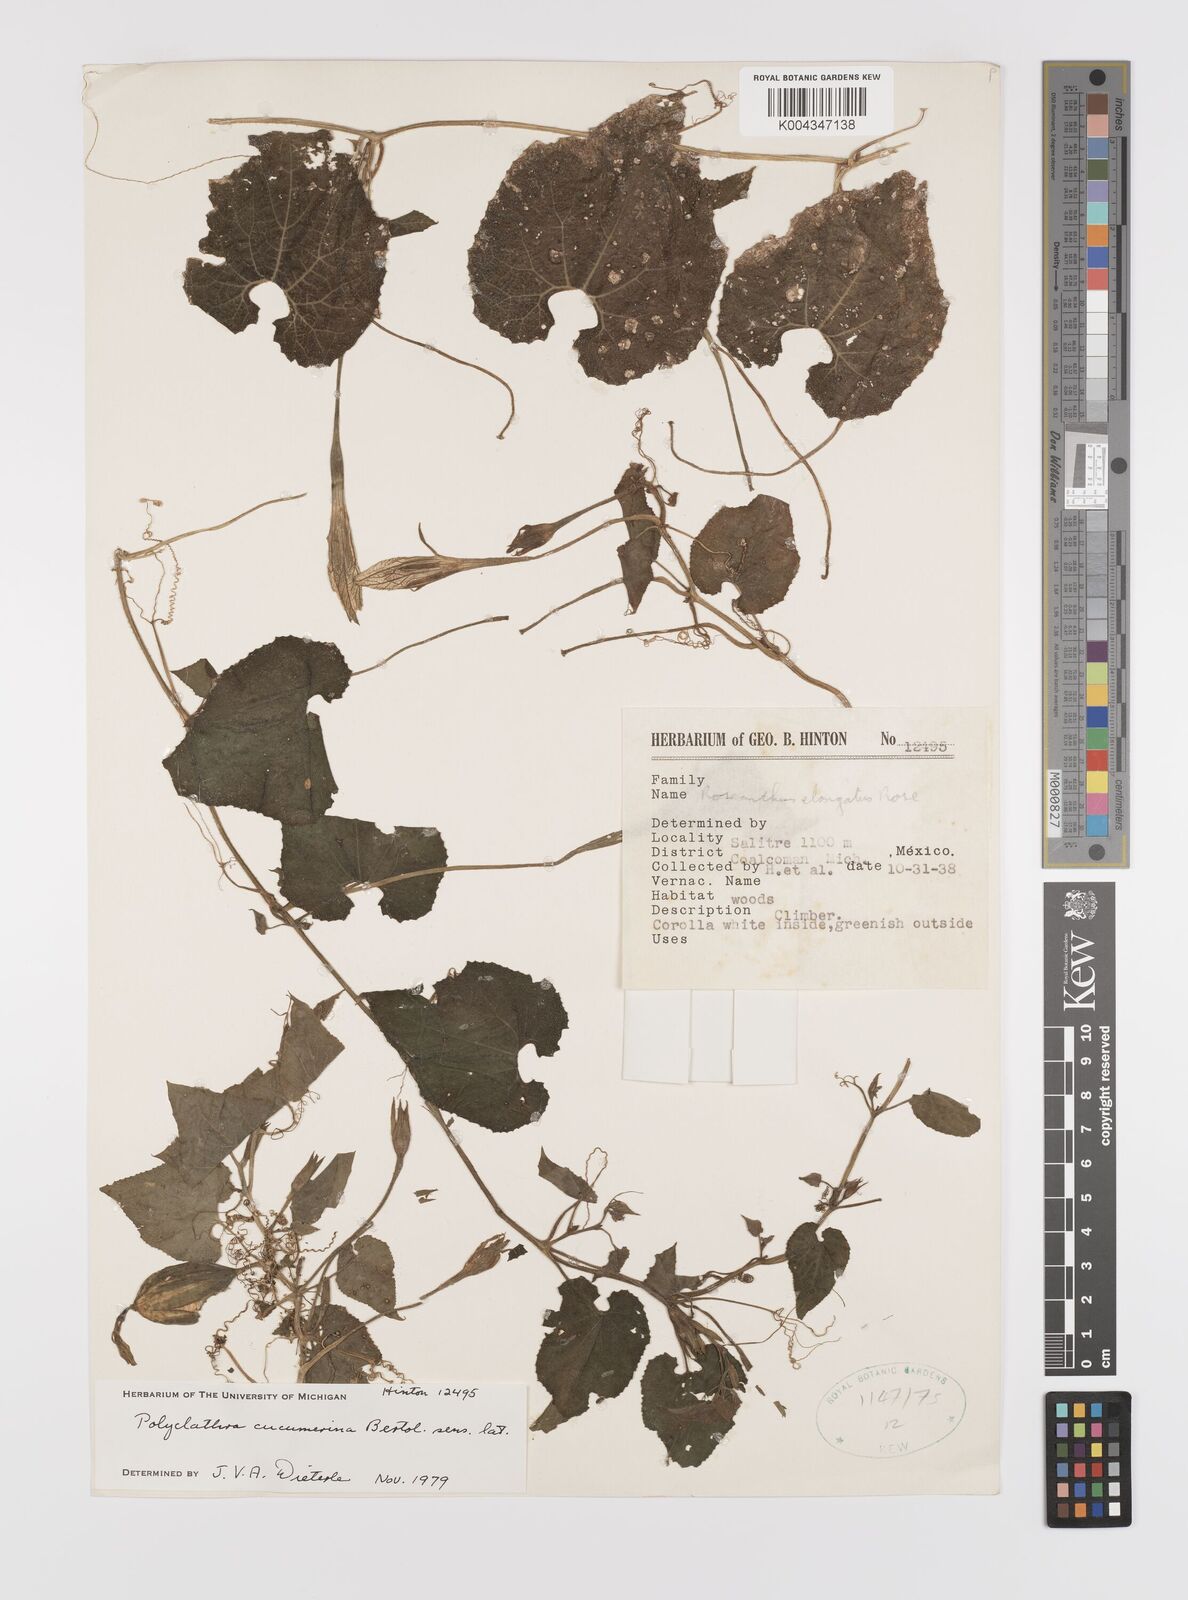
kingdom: Plantae
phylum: Tracheophyta
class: Magnoliopsida
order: Cucurbitales
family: Cucurbitaceae
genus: Polyclathra
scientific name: Polyclathra cucumerina
